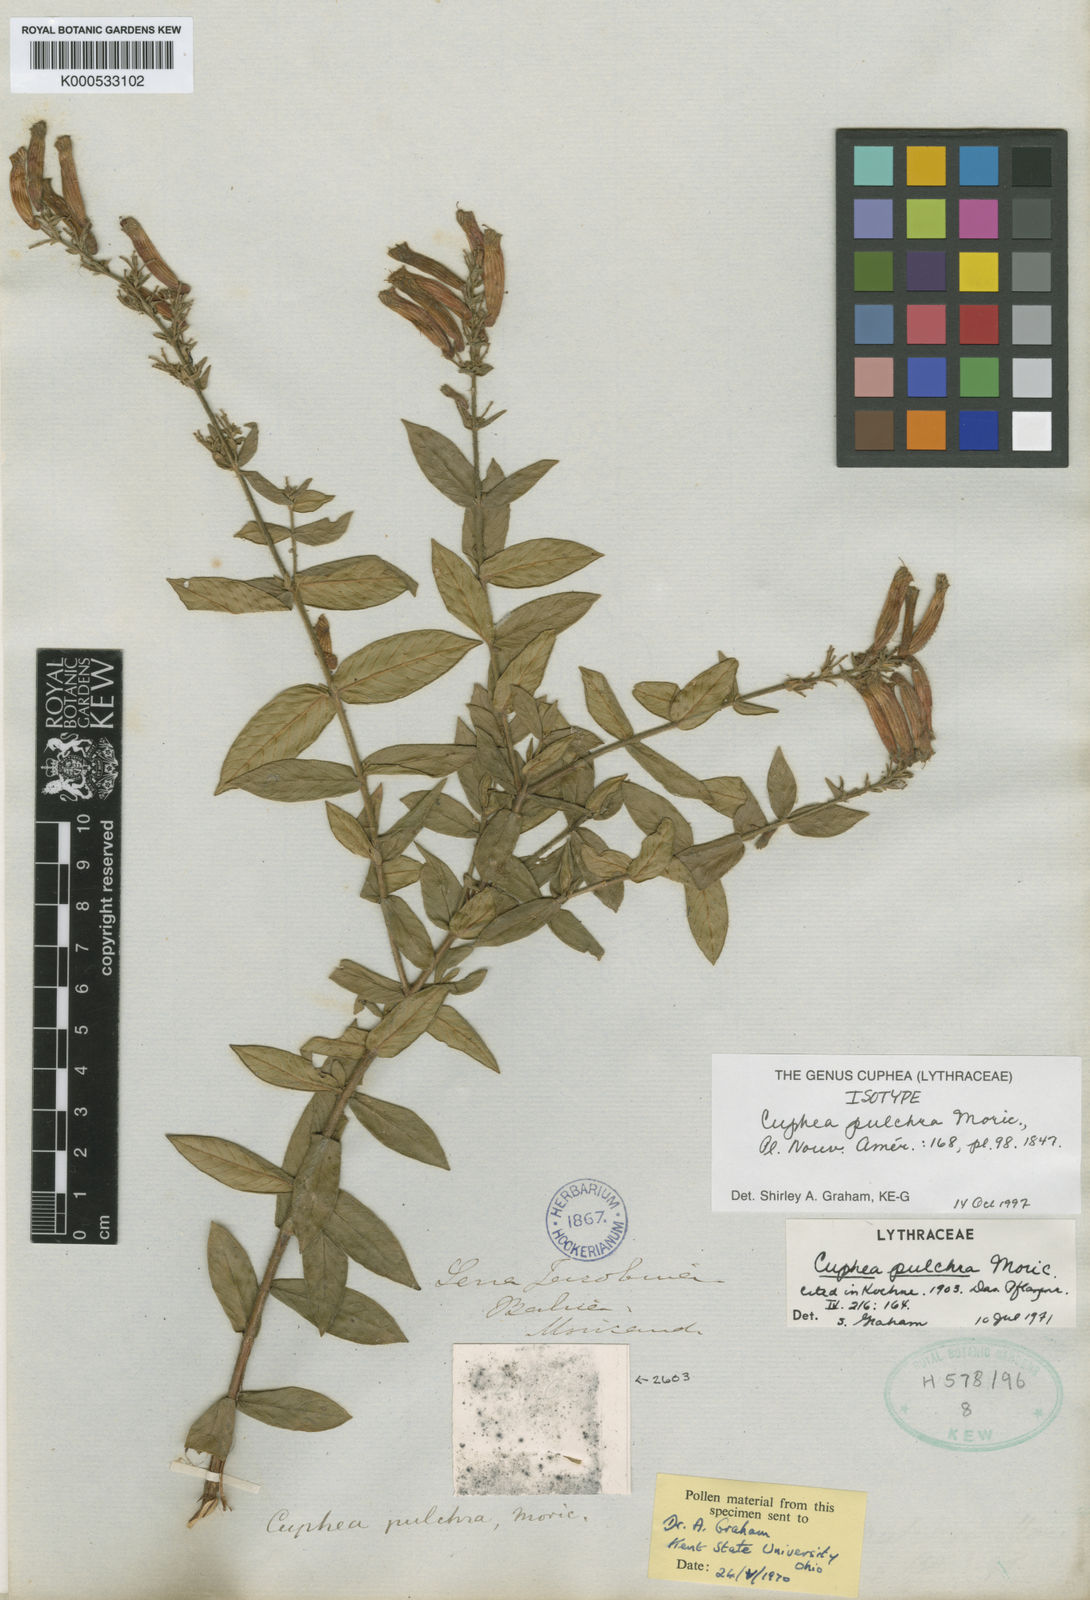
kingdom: Plantae
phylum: Tracheophyta
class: Magnoliopsida
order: Myrtales
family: Lythraceae
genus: Cuphea
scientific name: Cuphea pulchra
